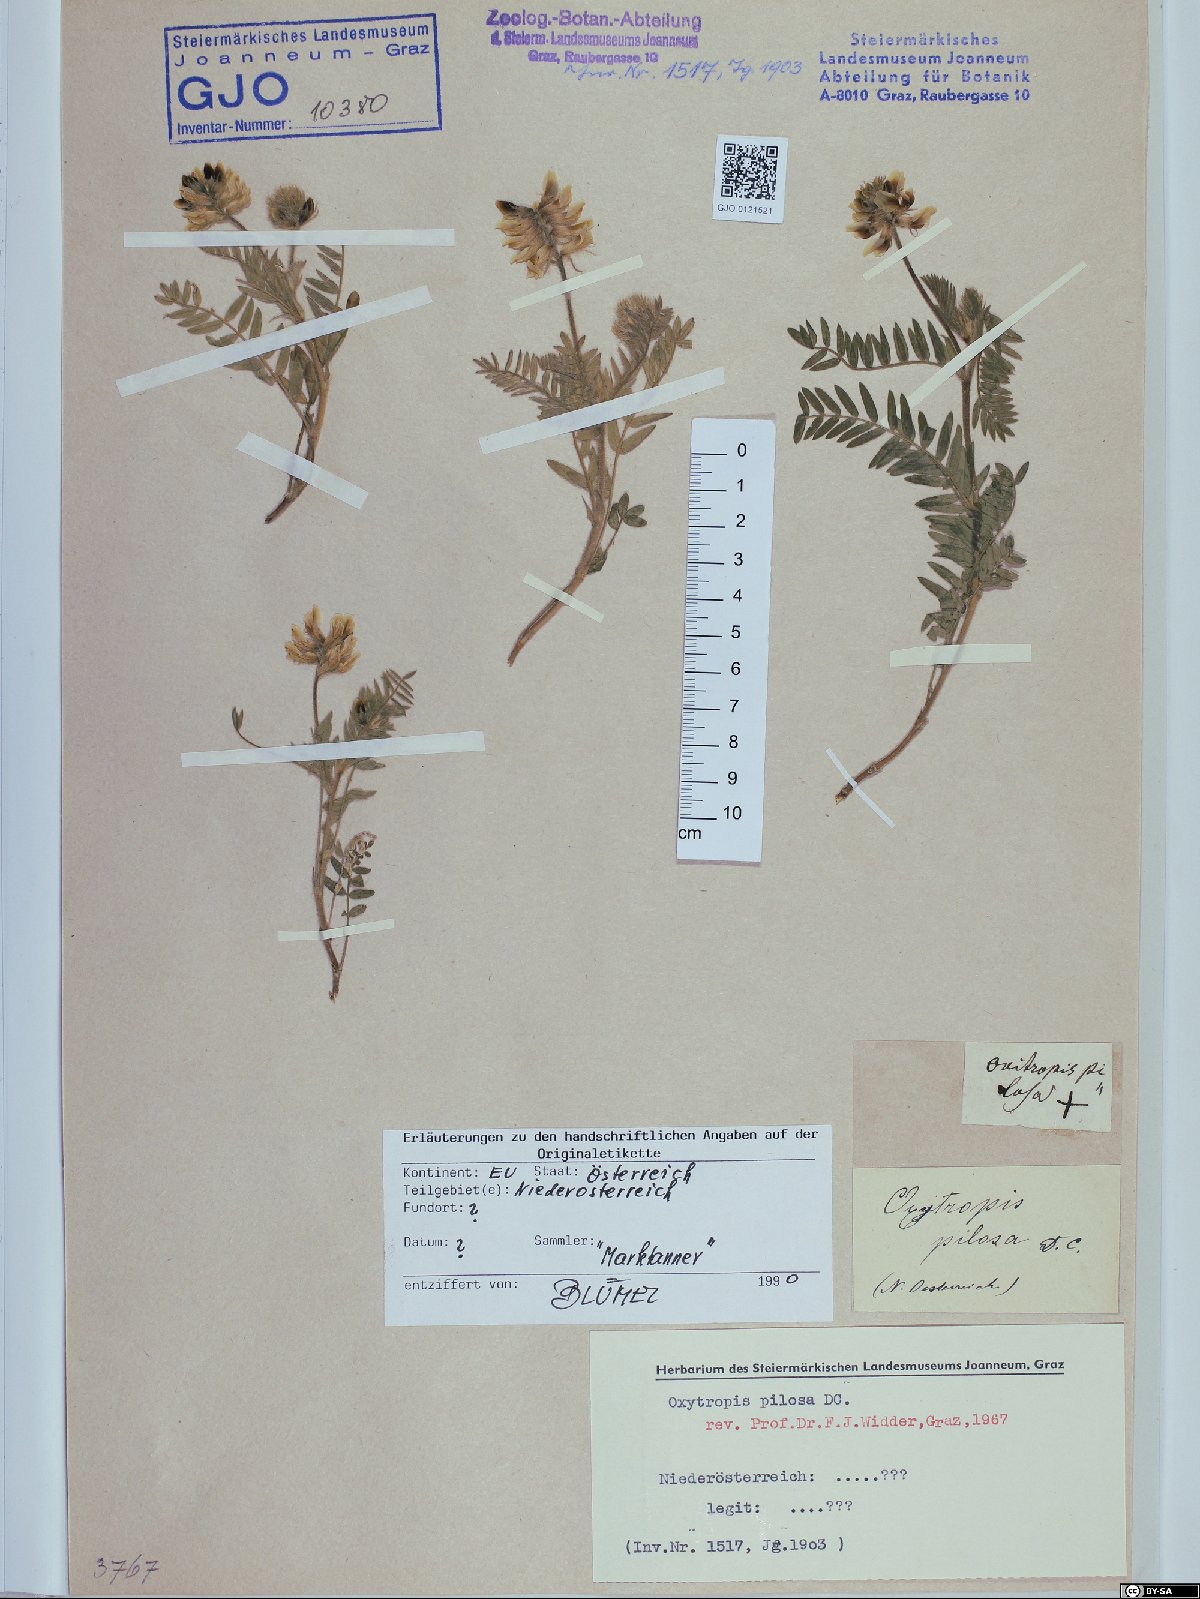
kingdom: Plantae
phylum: Tracheophyta
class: Magnoliopsida
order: Fabales
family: Fabaceae
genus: Oxytropis
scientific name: Oxytropis pilosa
